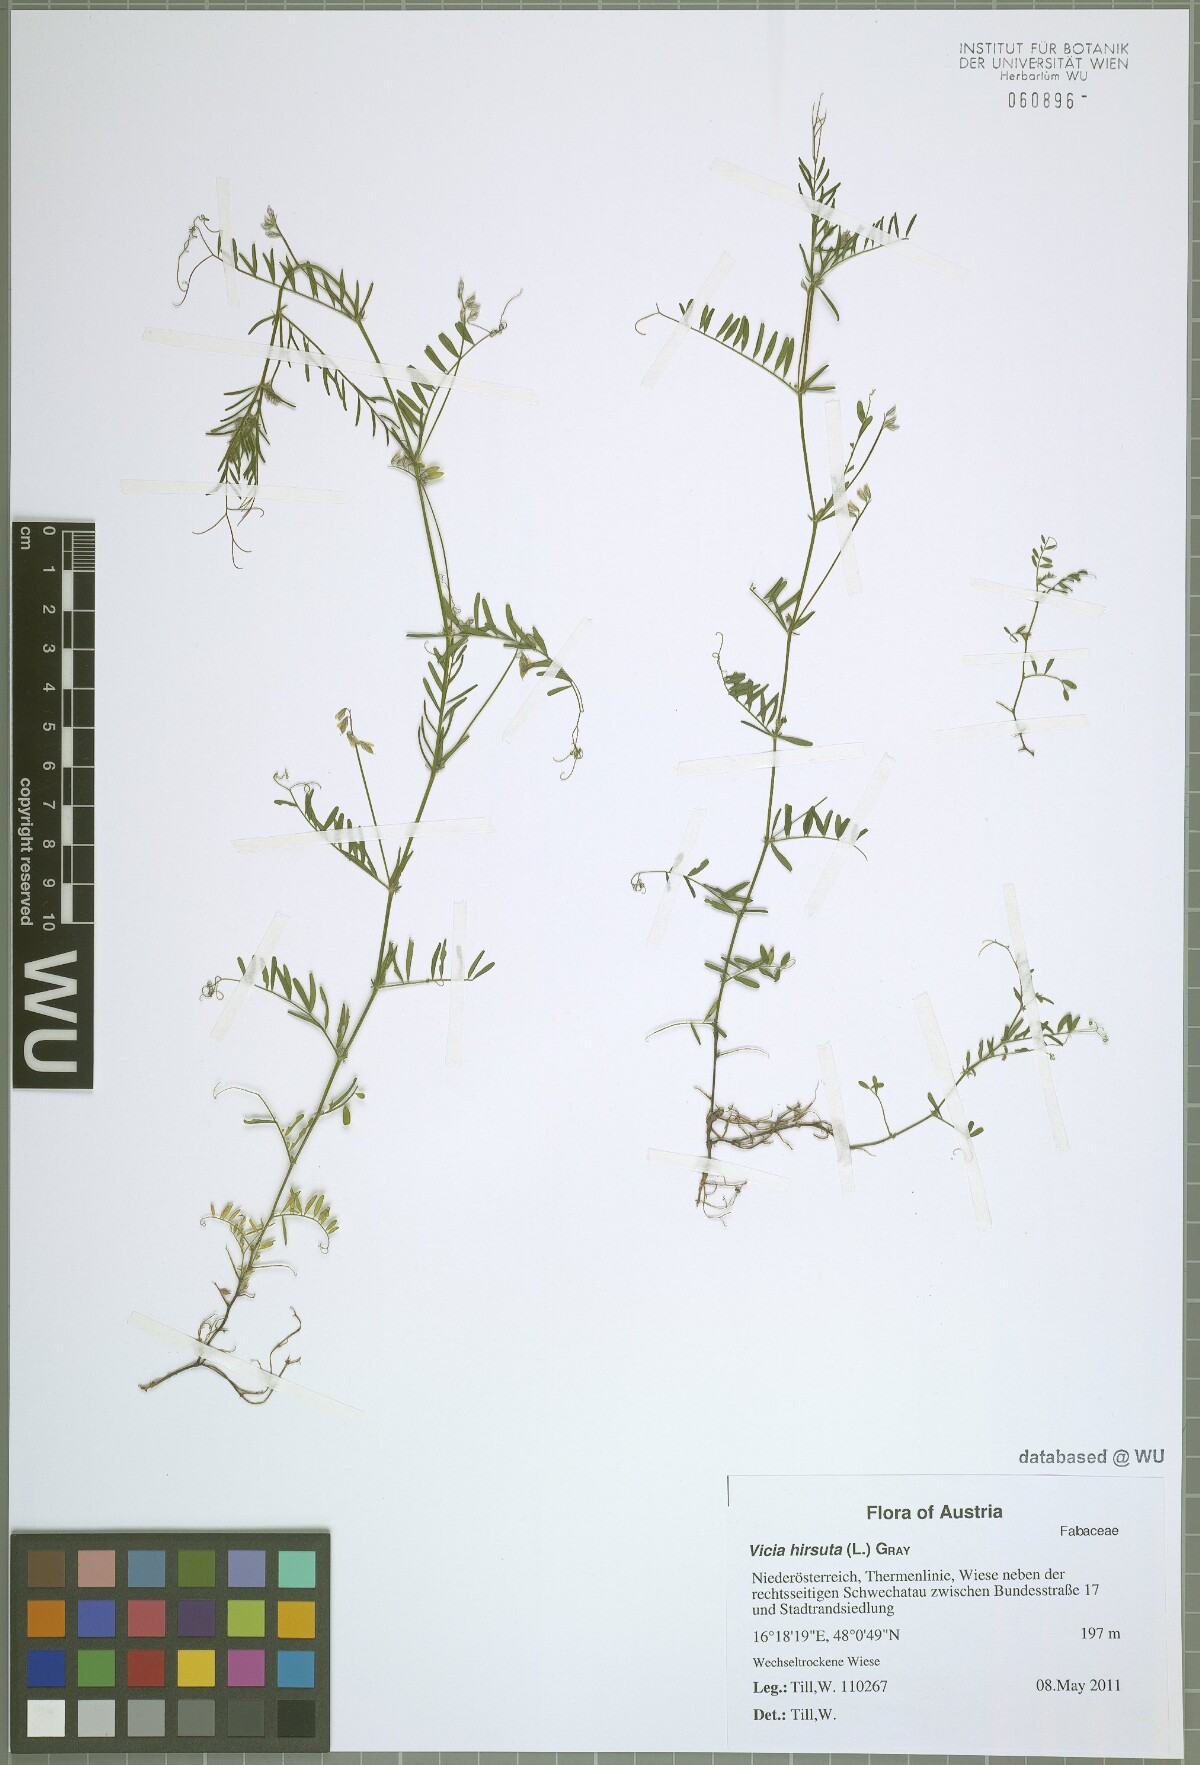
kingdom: Plantae
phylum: Tracheophyta
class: Magnoliopsida
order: Fabales
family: Fabaceae
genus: Vicia
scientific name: Vicia hirsuta
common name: Tiny vetch
